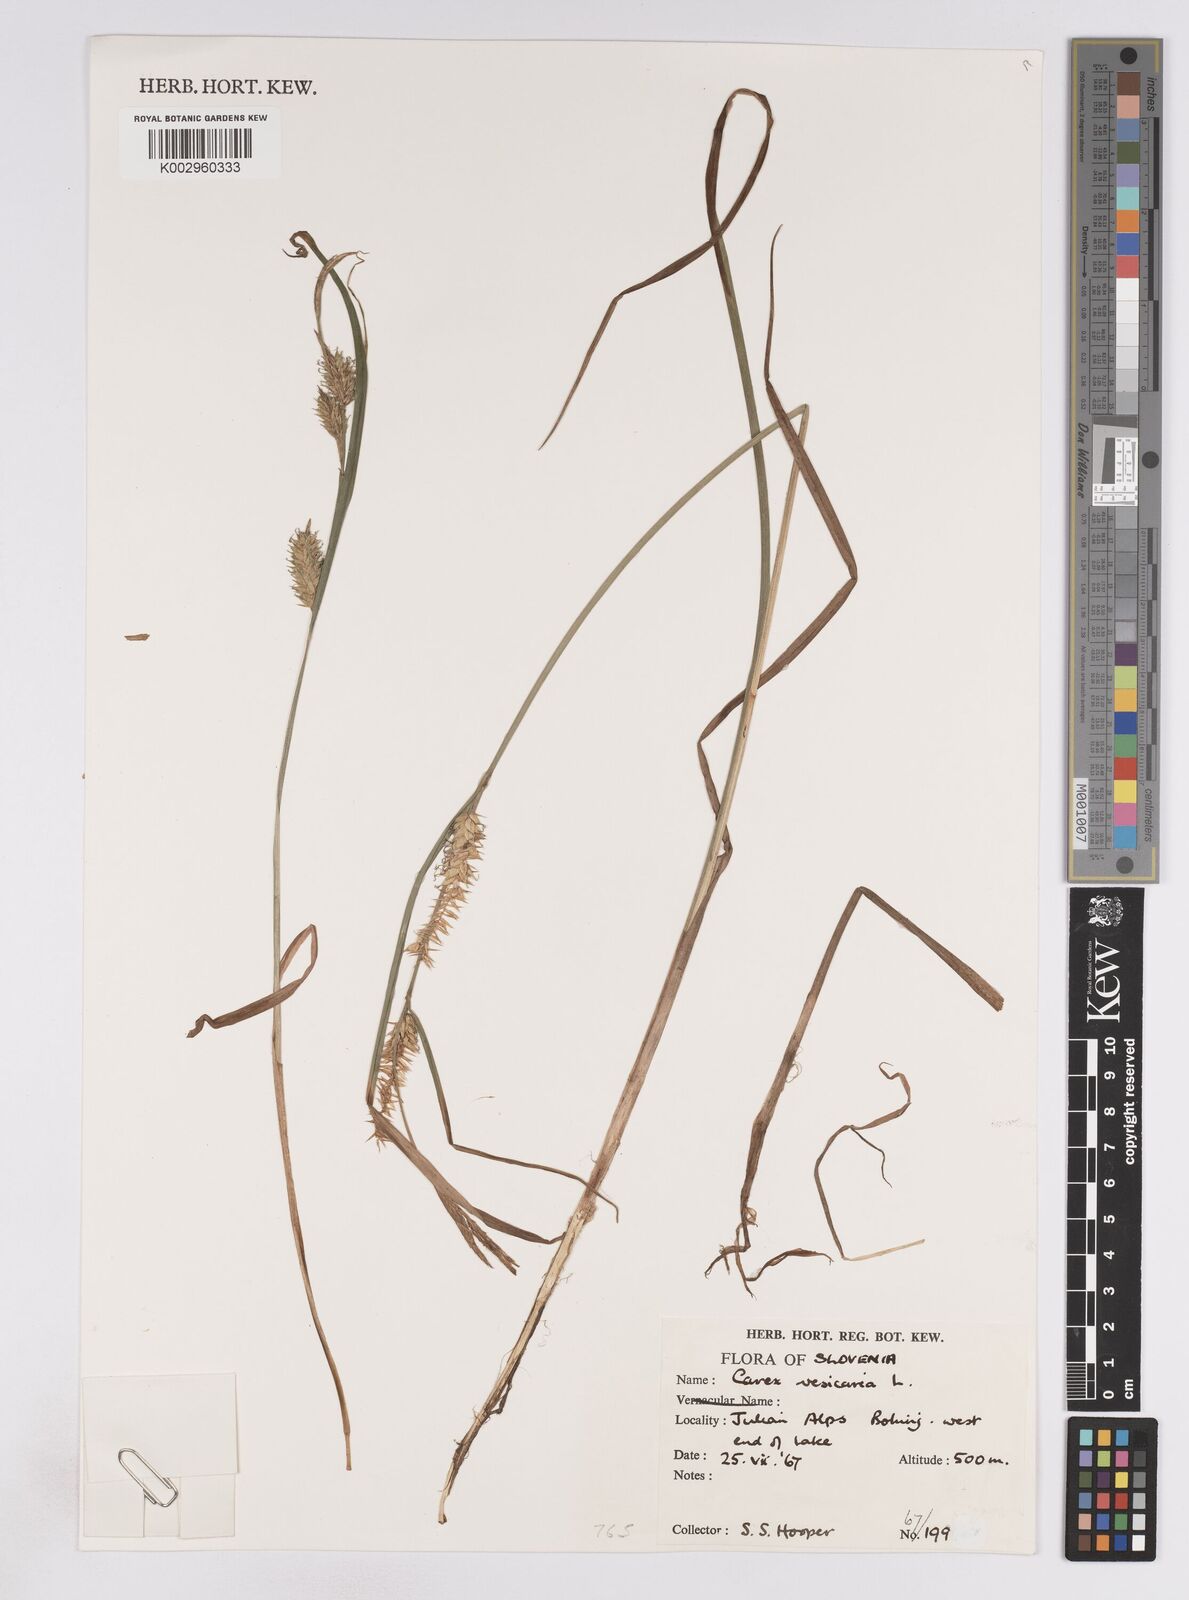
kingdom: Plantae
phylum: Tracheophyta
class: Liliopsida
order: Poales
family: Cyperaceae
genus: Carex
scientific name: Carex vesicaria
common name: Bladder-sedge
